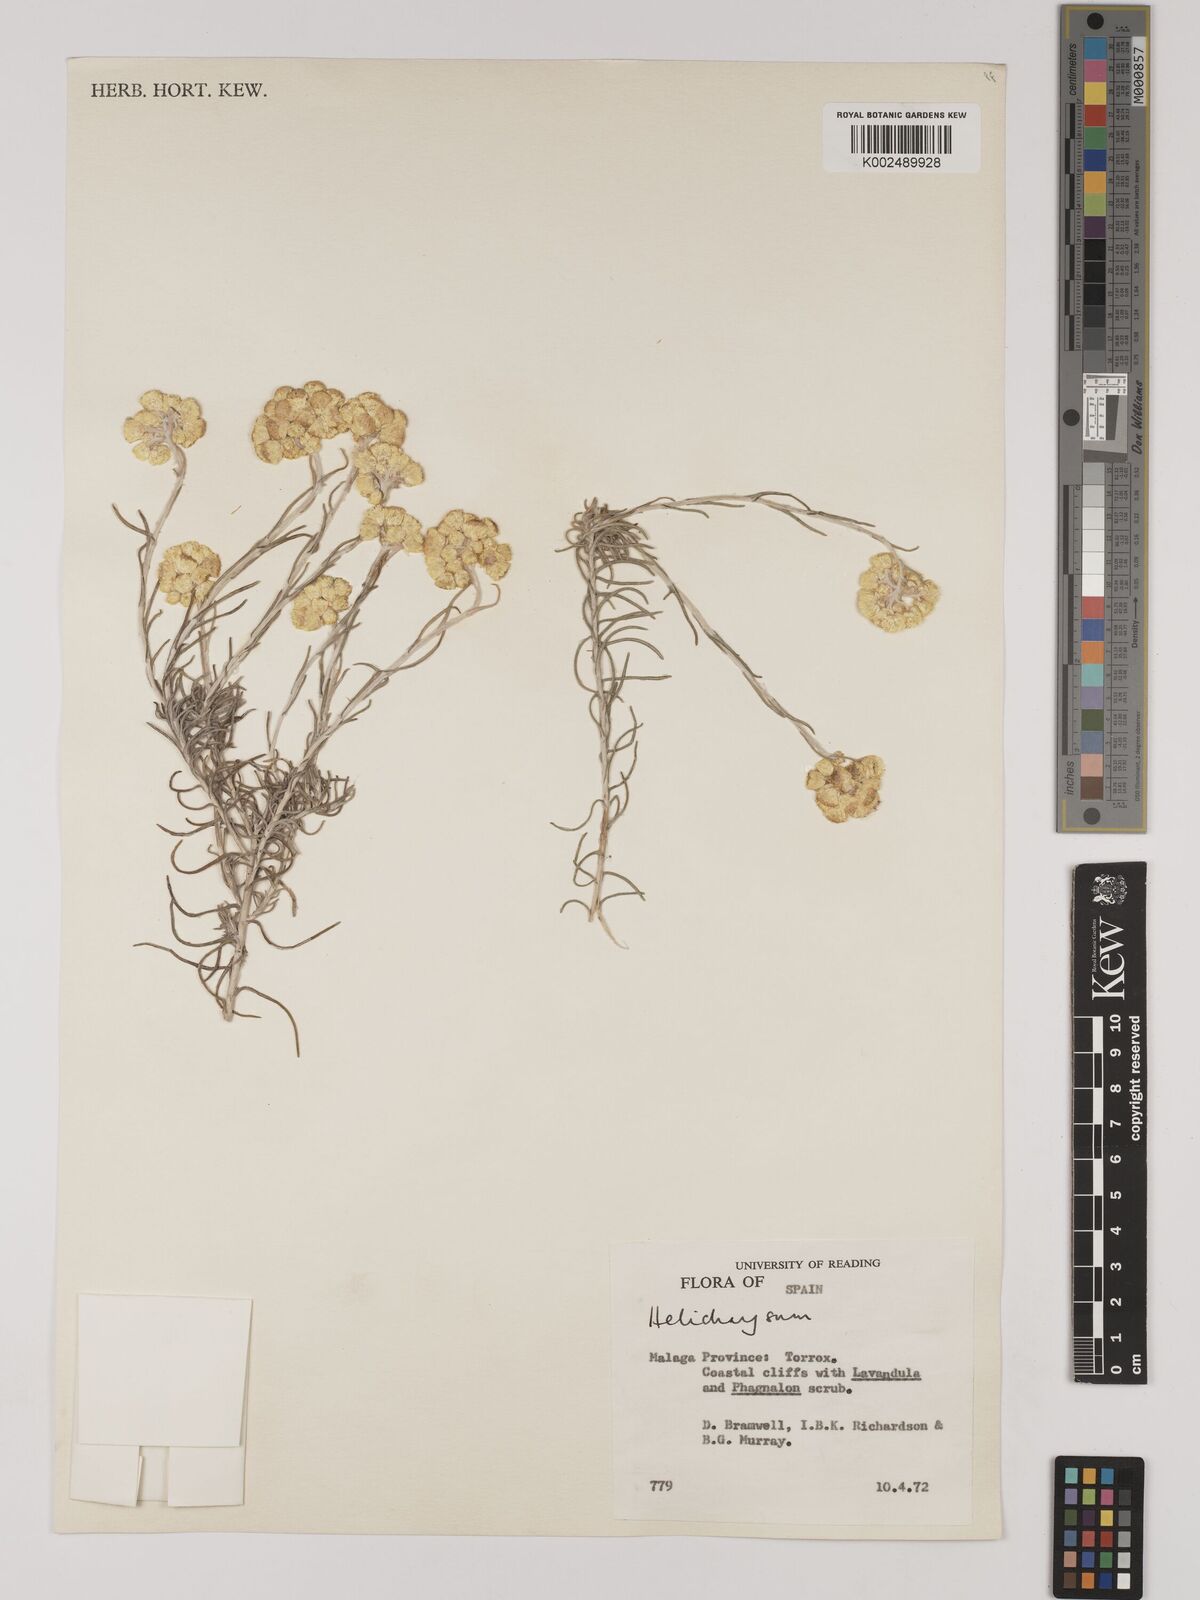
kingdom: Plantae
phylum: Tracheophyta
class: Magnoliopsida
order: Asterales
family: Asteraceae
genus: Helichrysum
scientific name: Helichrysum
